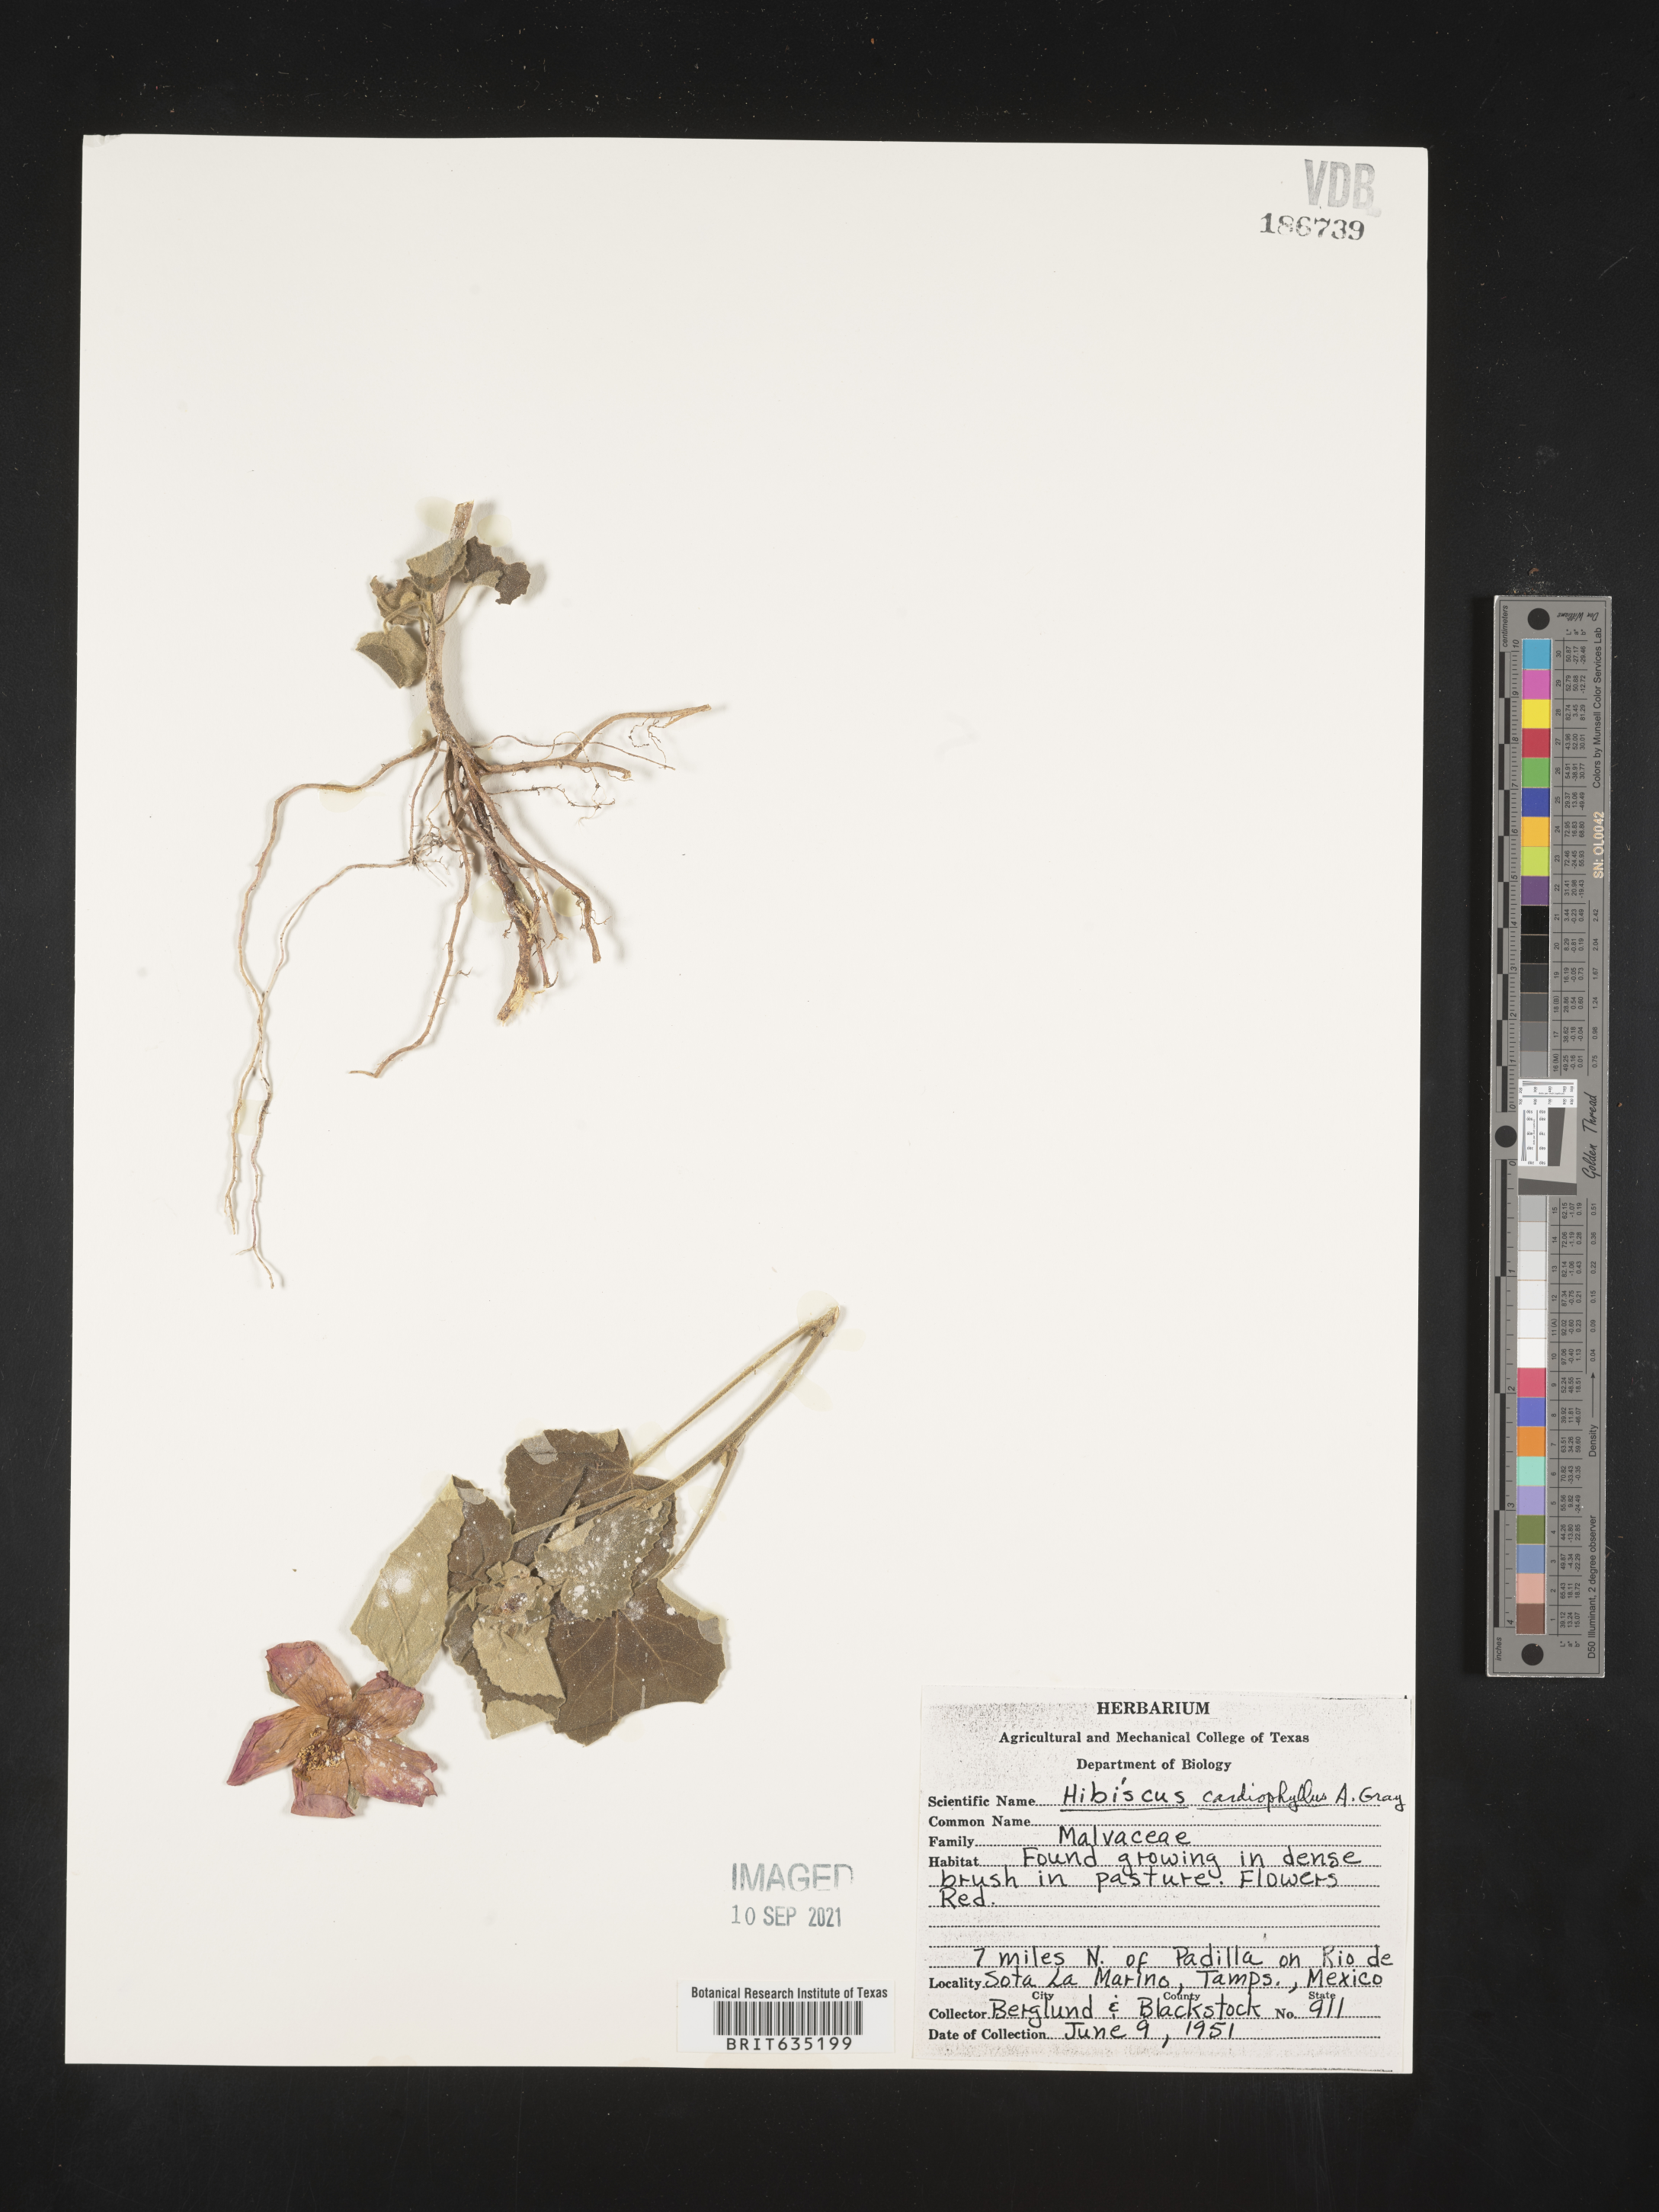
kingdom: Plantae
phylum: Tracheophyta
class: Magnoliopsida
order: Malvales
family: Malvaceae
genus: Hibiscus
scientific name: Hibiscus
